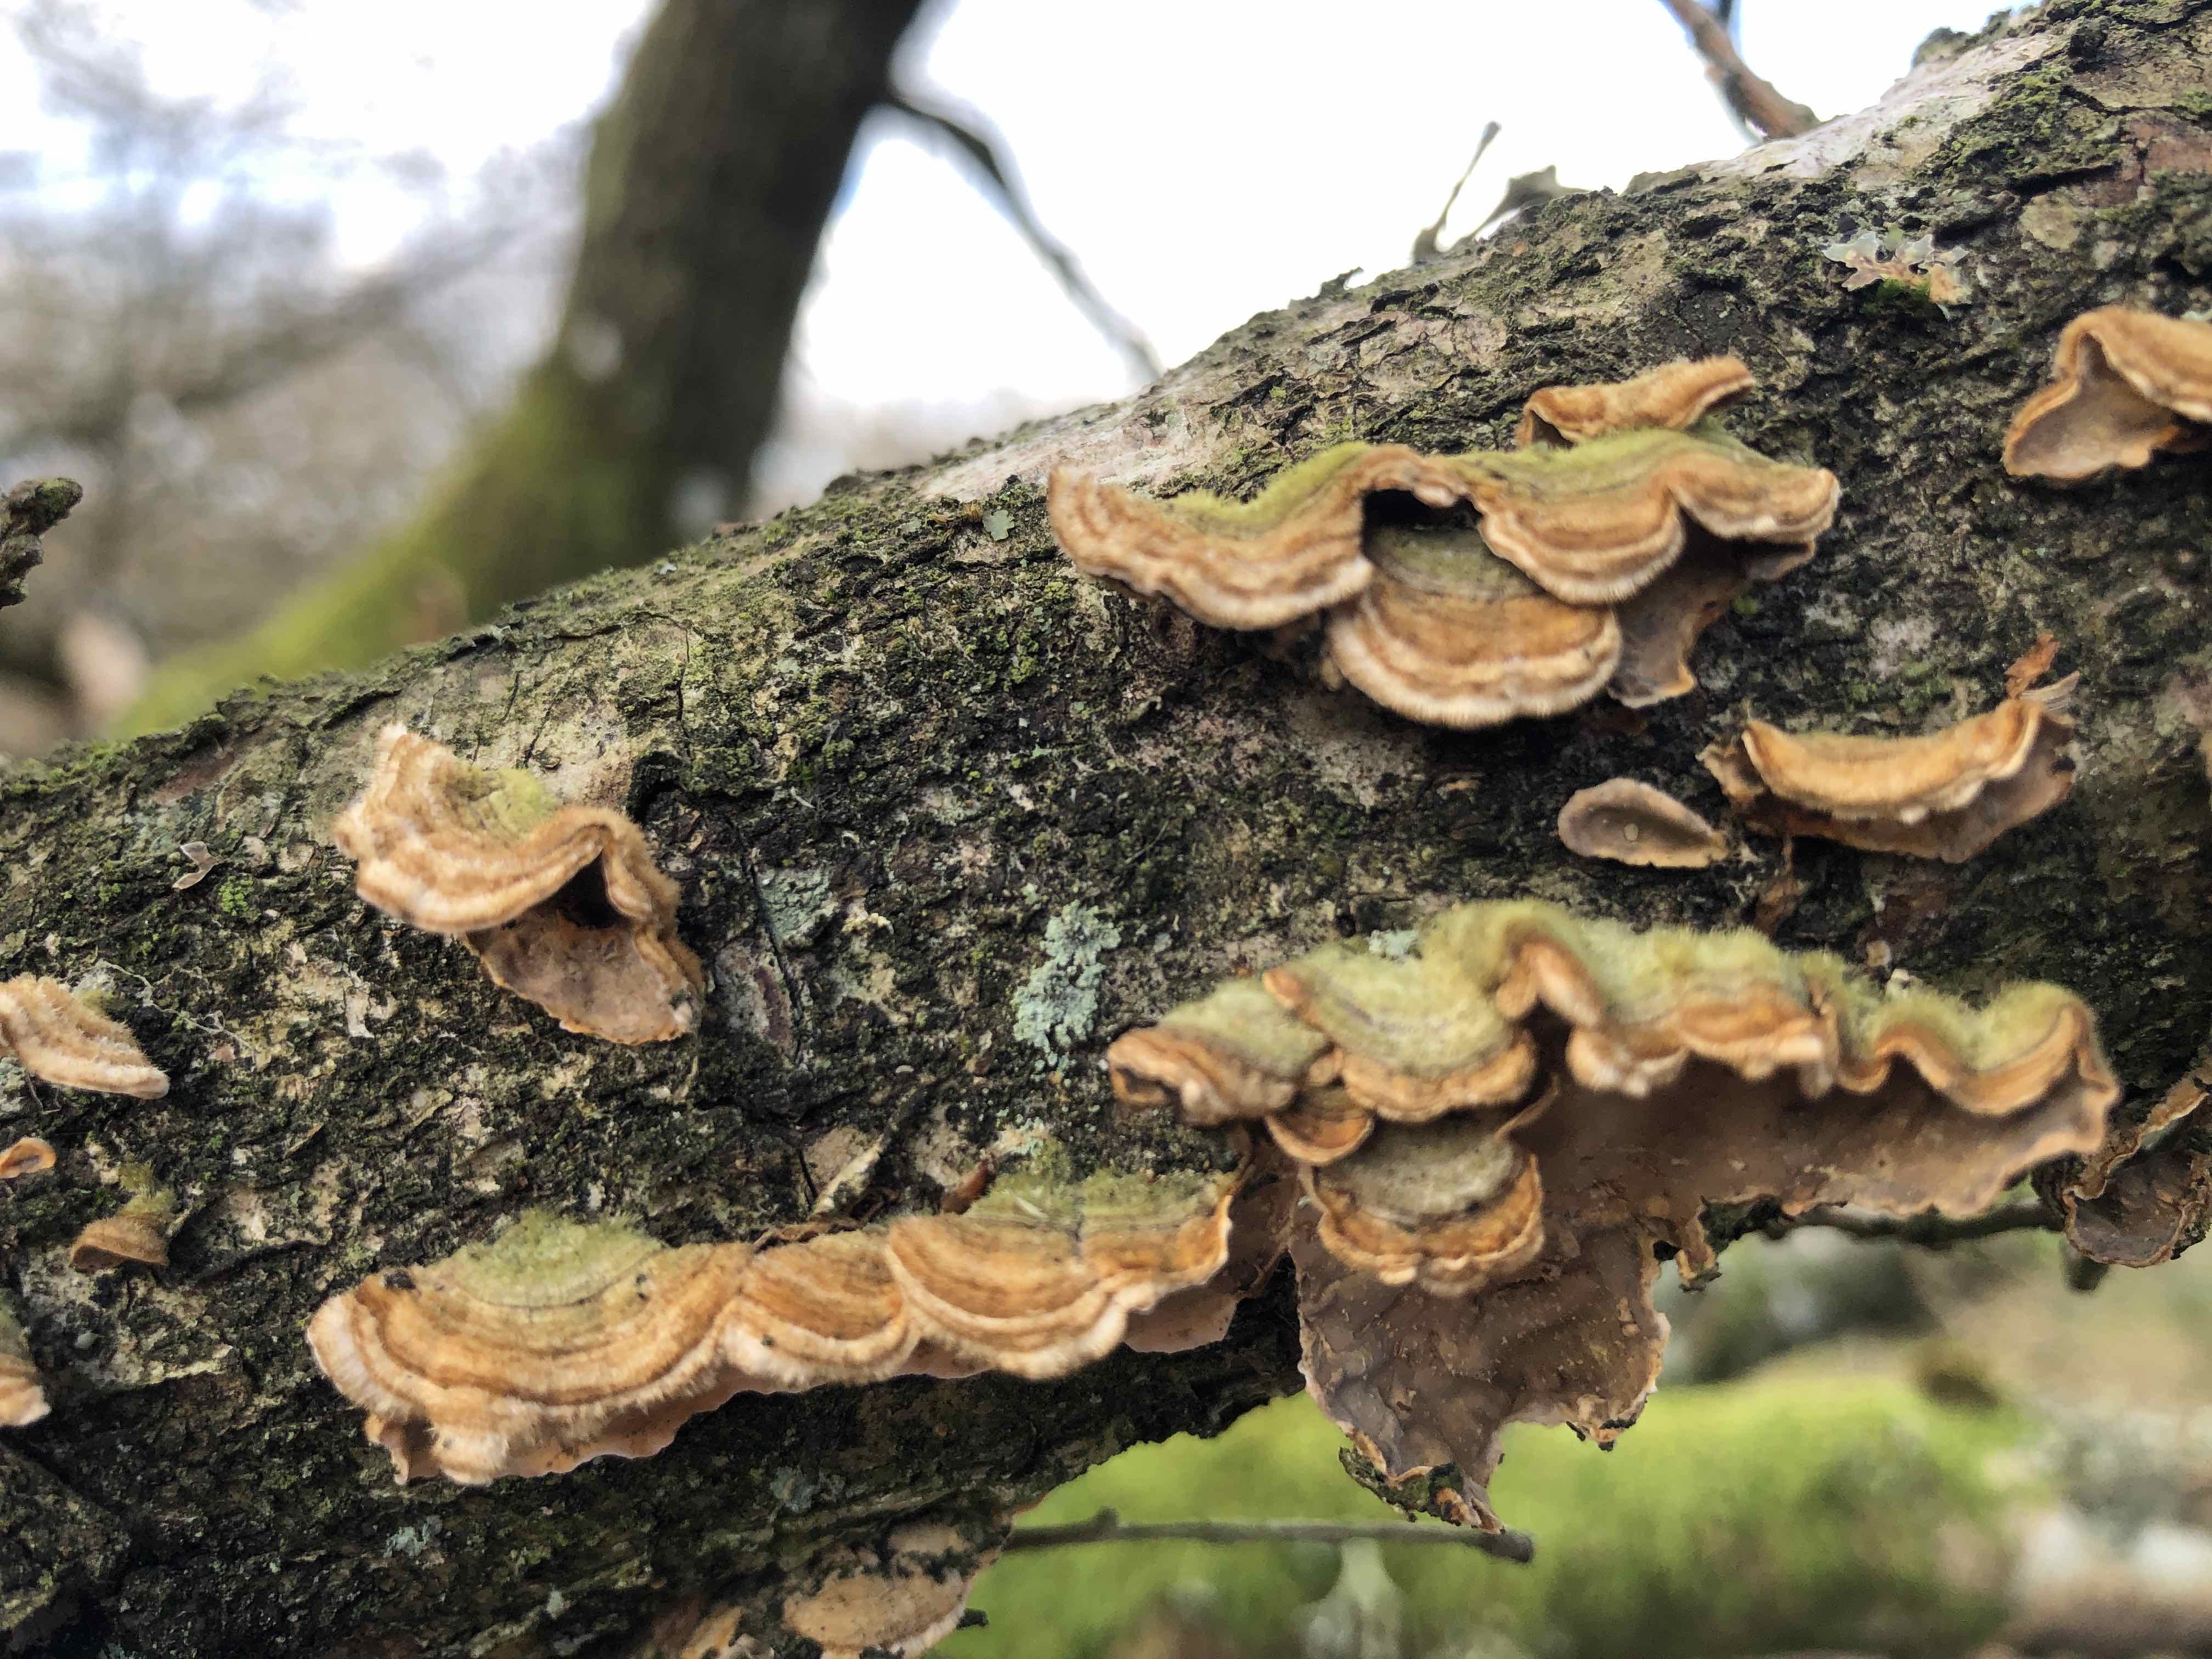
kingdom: Fungi
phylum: Basidiomycota
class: Agaricomycetes
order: Russulales
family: Stereaceae
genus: Stereum
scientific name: Stereum hirsutum
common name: håret lædersvamp
